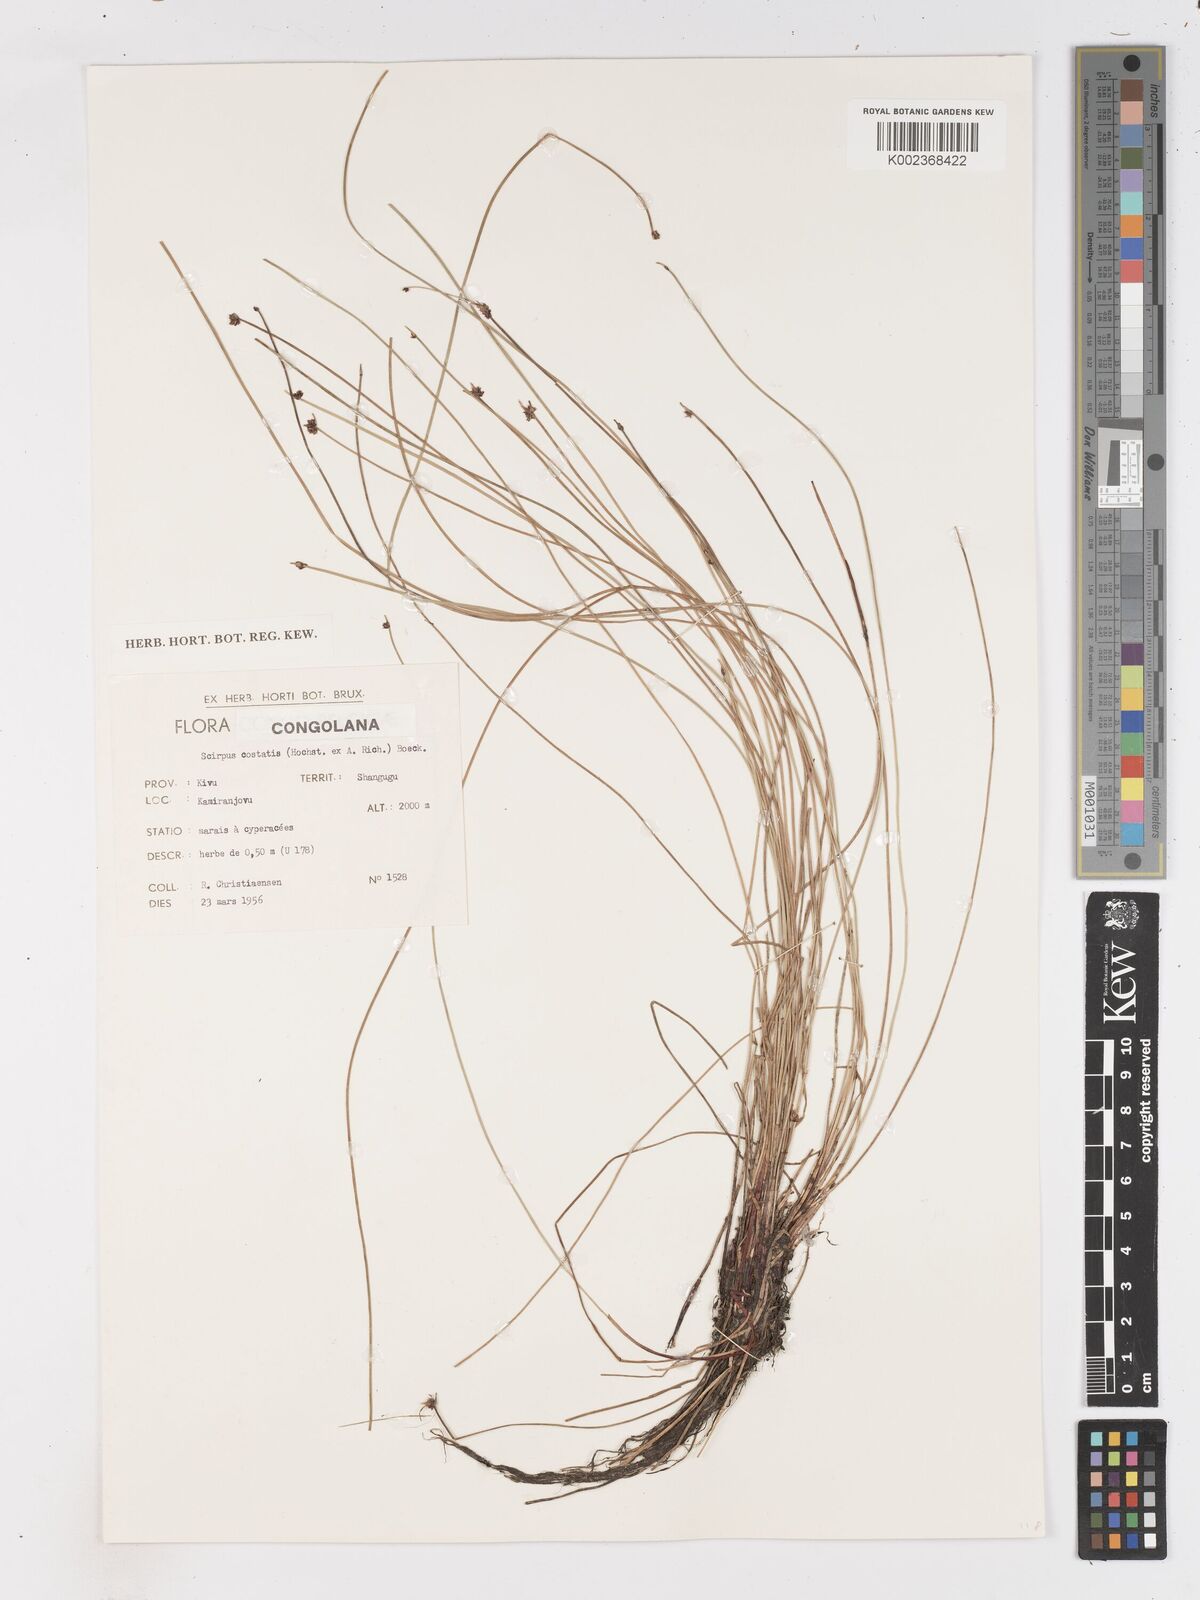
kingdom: Plantae
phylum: Tracheophyta
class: Liliopsida
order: Poales
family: Cyperaceae
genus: Isolepis
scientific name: Isolepis costata
